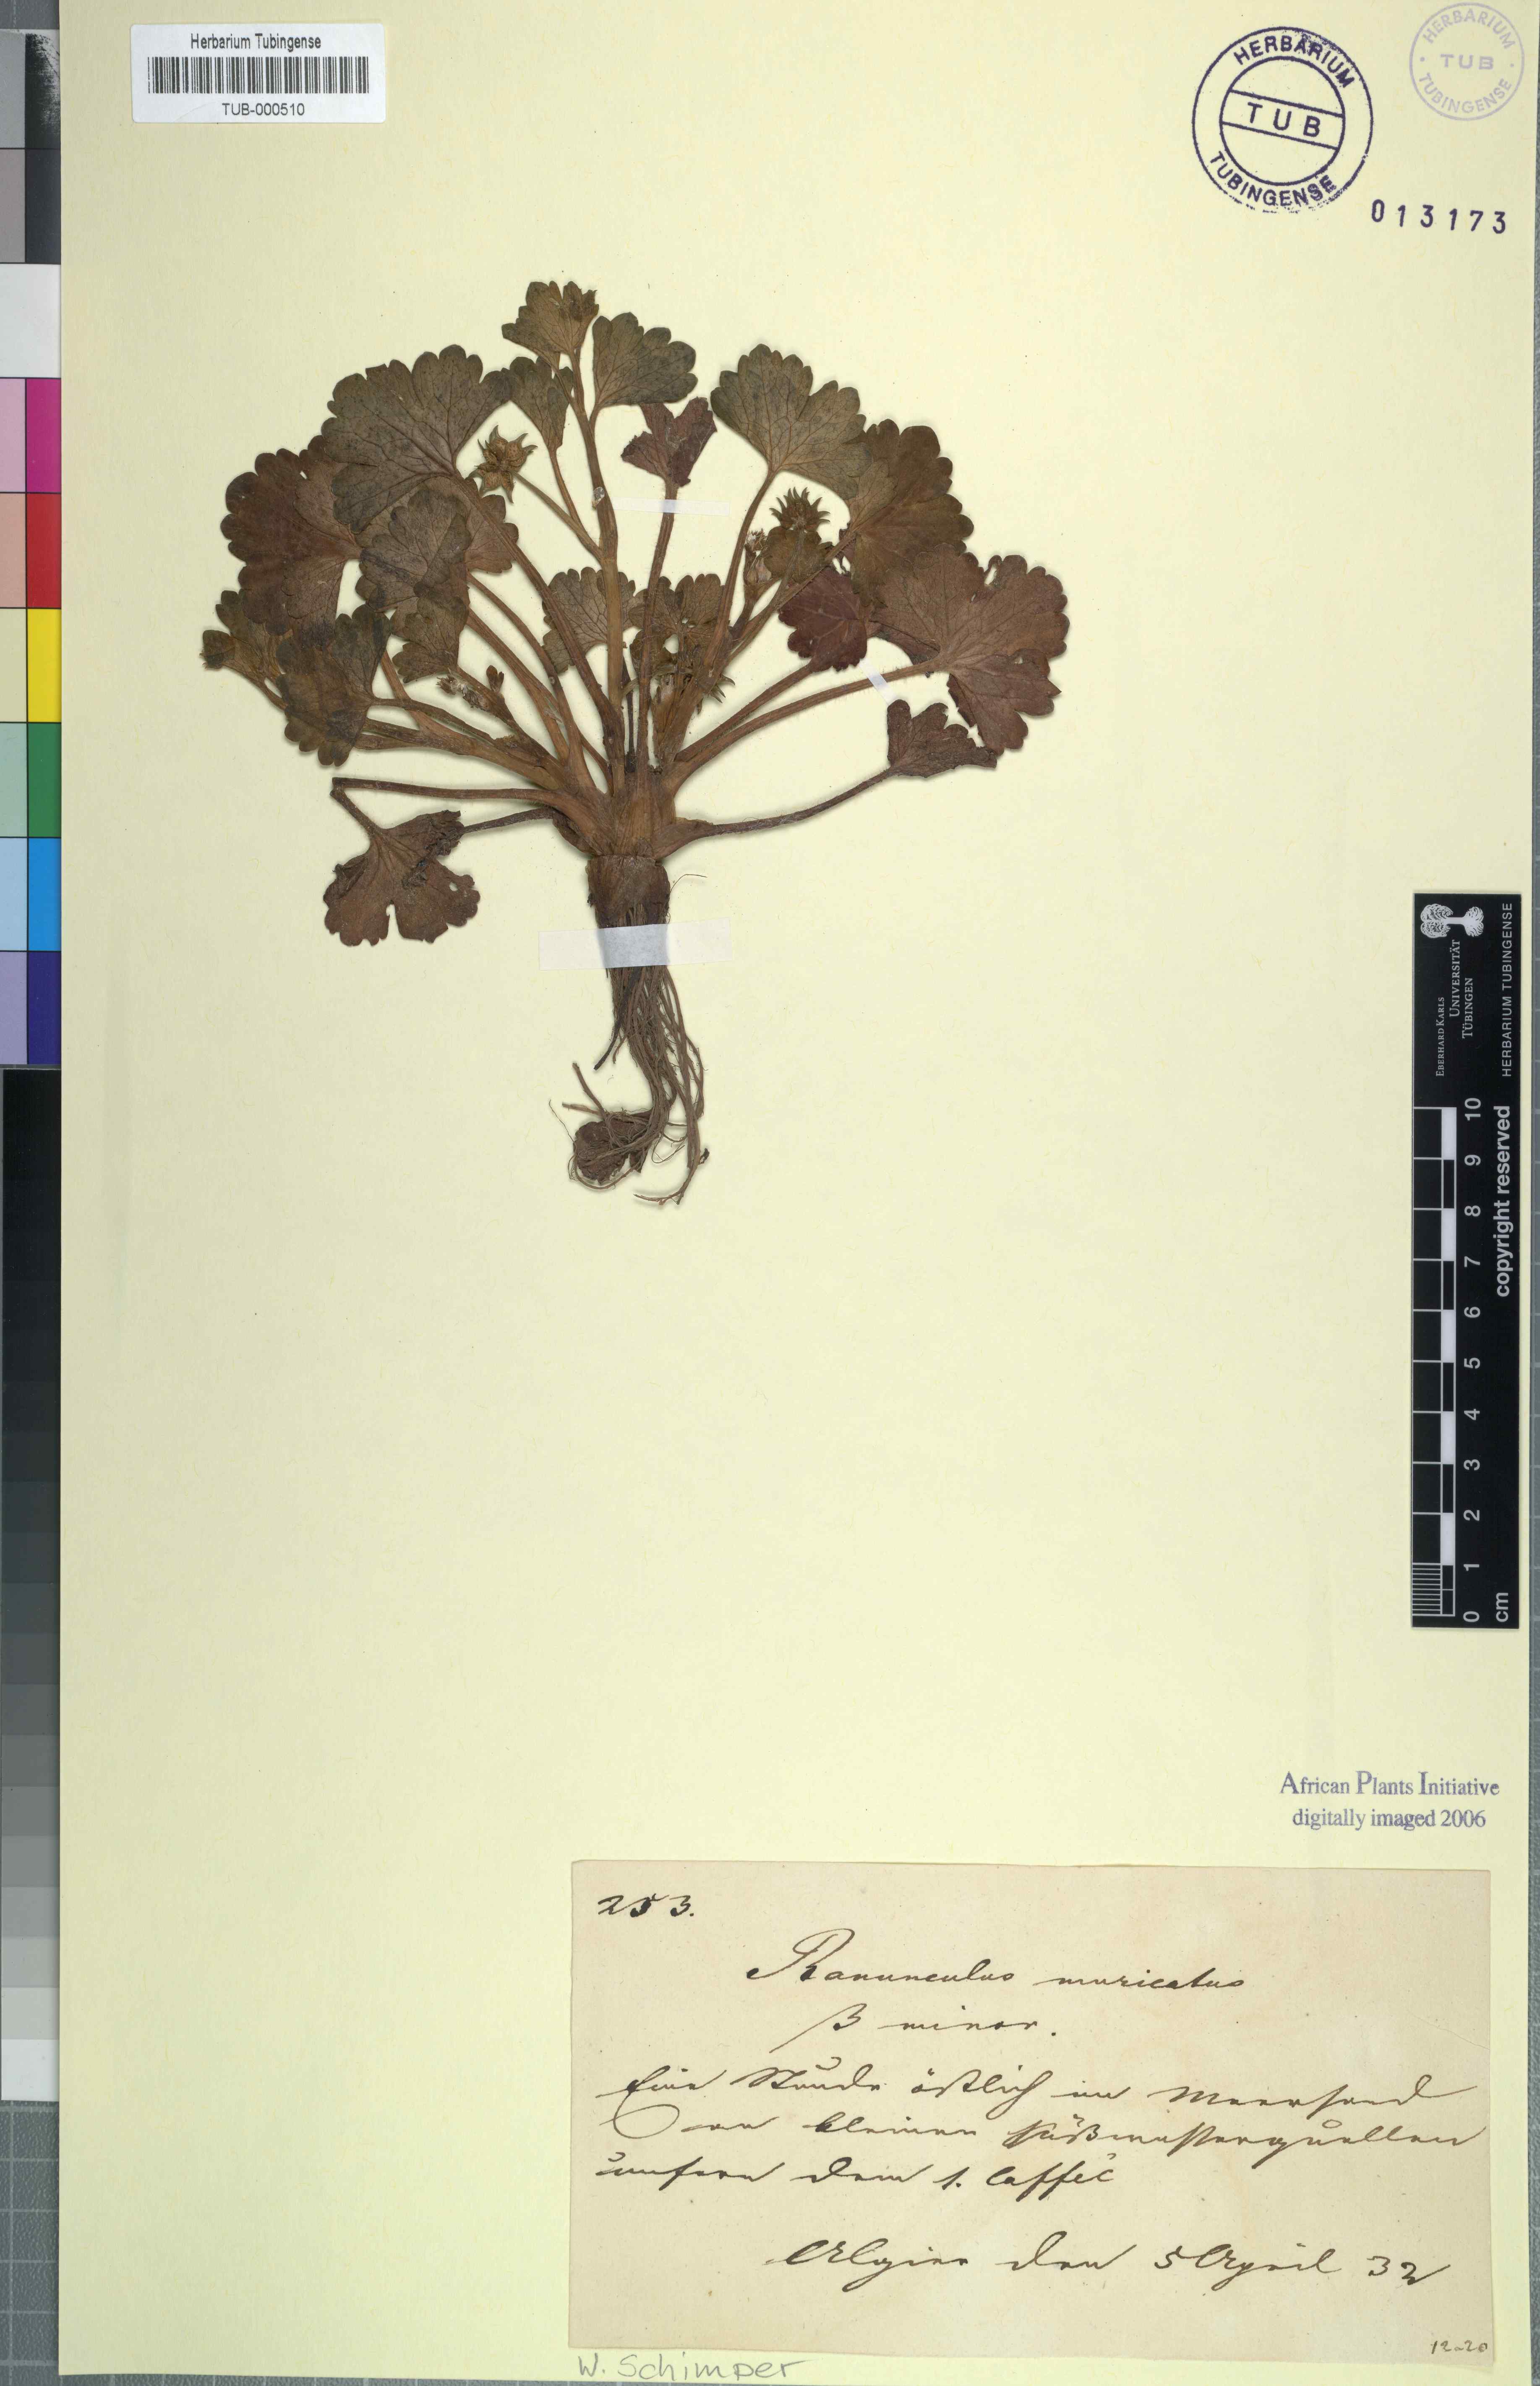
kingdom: Plantae
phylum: Tracheophyta
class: Magnoliopsida
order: Ranunculales
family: Ranunculaceae
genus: Ranunculus
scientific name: Ranunculus muricatus
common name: Rough-fruited buttercup
